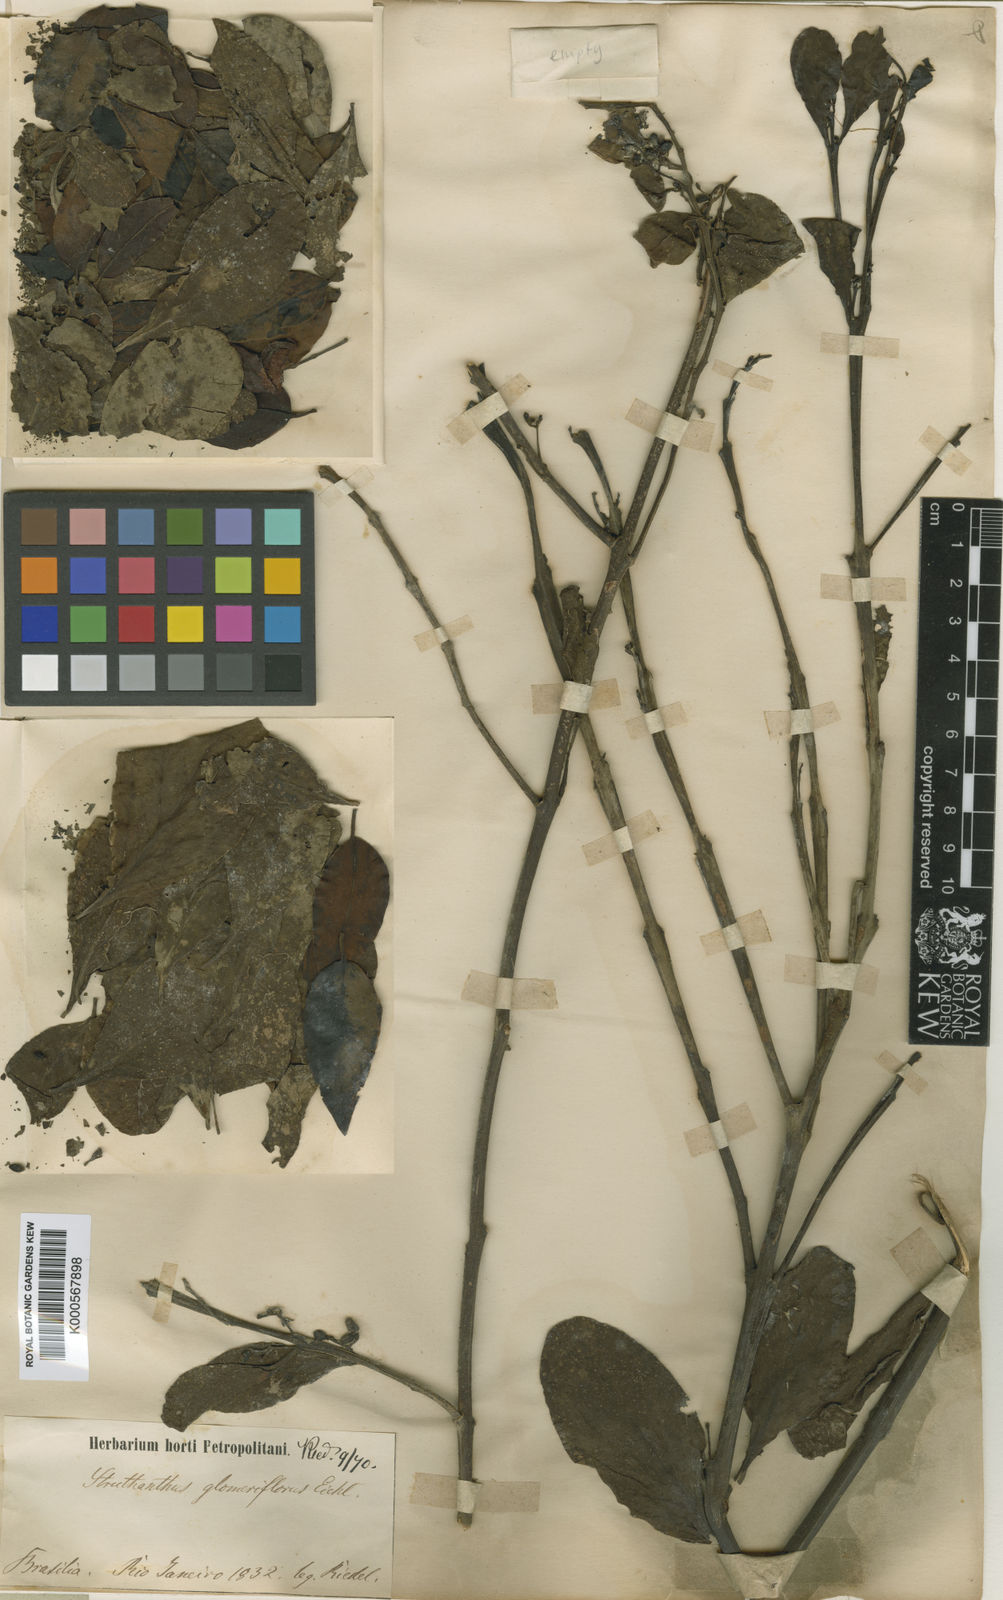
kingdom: Plantae
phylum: Tracheophyta
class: Magnoliopsida
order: Santalales
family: Loranthaceae
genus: Struthanthus
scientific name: Struthanthus glomeriflorus
